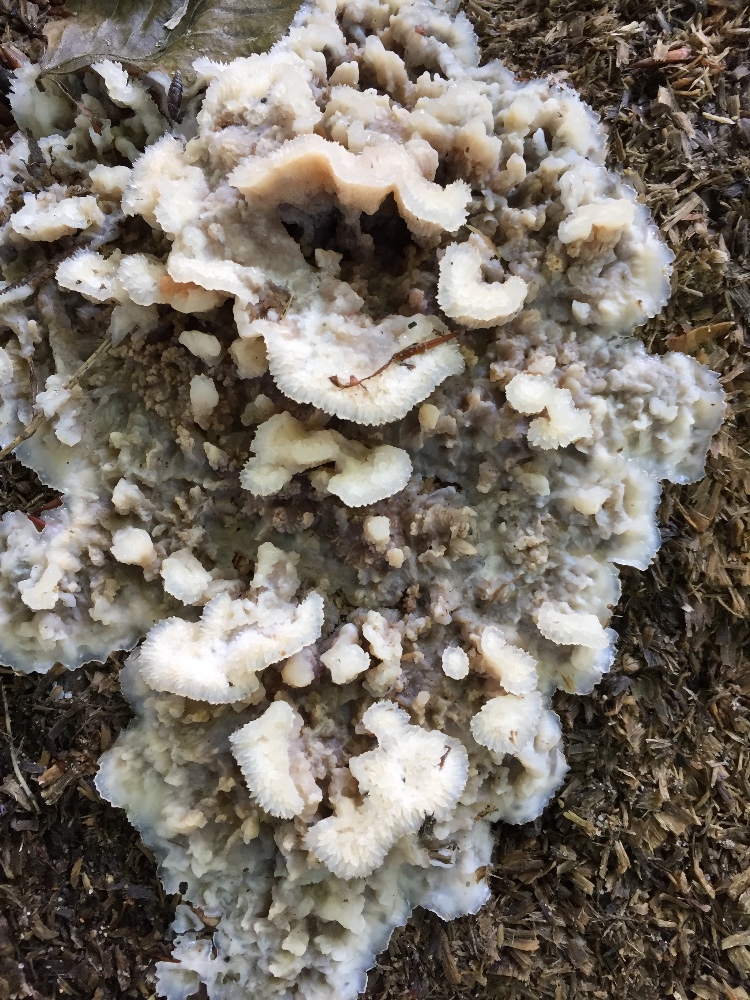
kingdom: Fungi
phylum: Basidiomycota
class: Agaricomycetes
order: Polyporales
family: Meruliaceae
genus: Phlebia
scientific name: Phlebia tremellosa
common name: bævrende åresvamp
